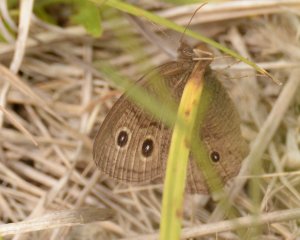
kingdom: Animalia
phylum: Arthropoda
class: Insecta
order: Lepidoptera
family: Nymphalidae
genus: Cercyonis
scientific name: Cercyonis pegala
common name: Common Wood-Nymph
